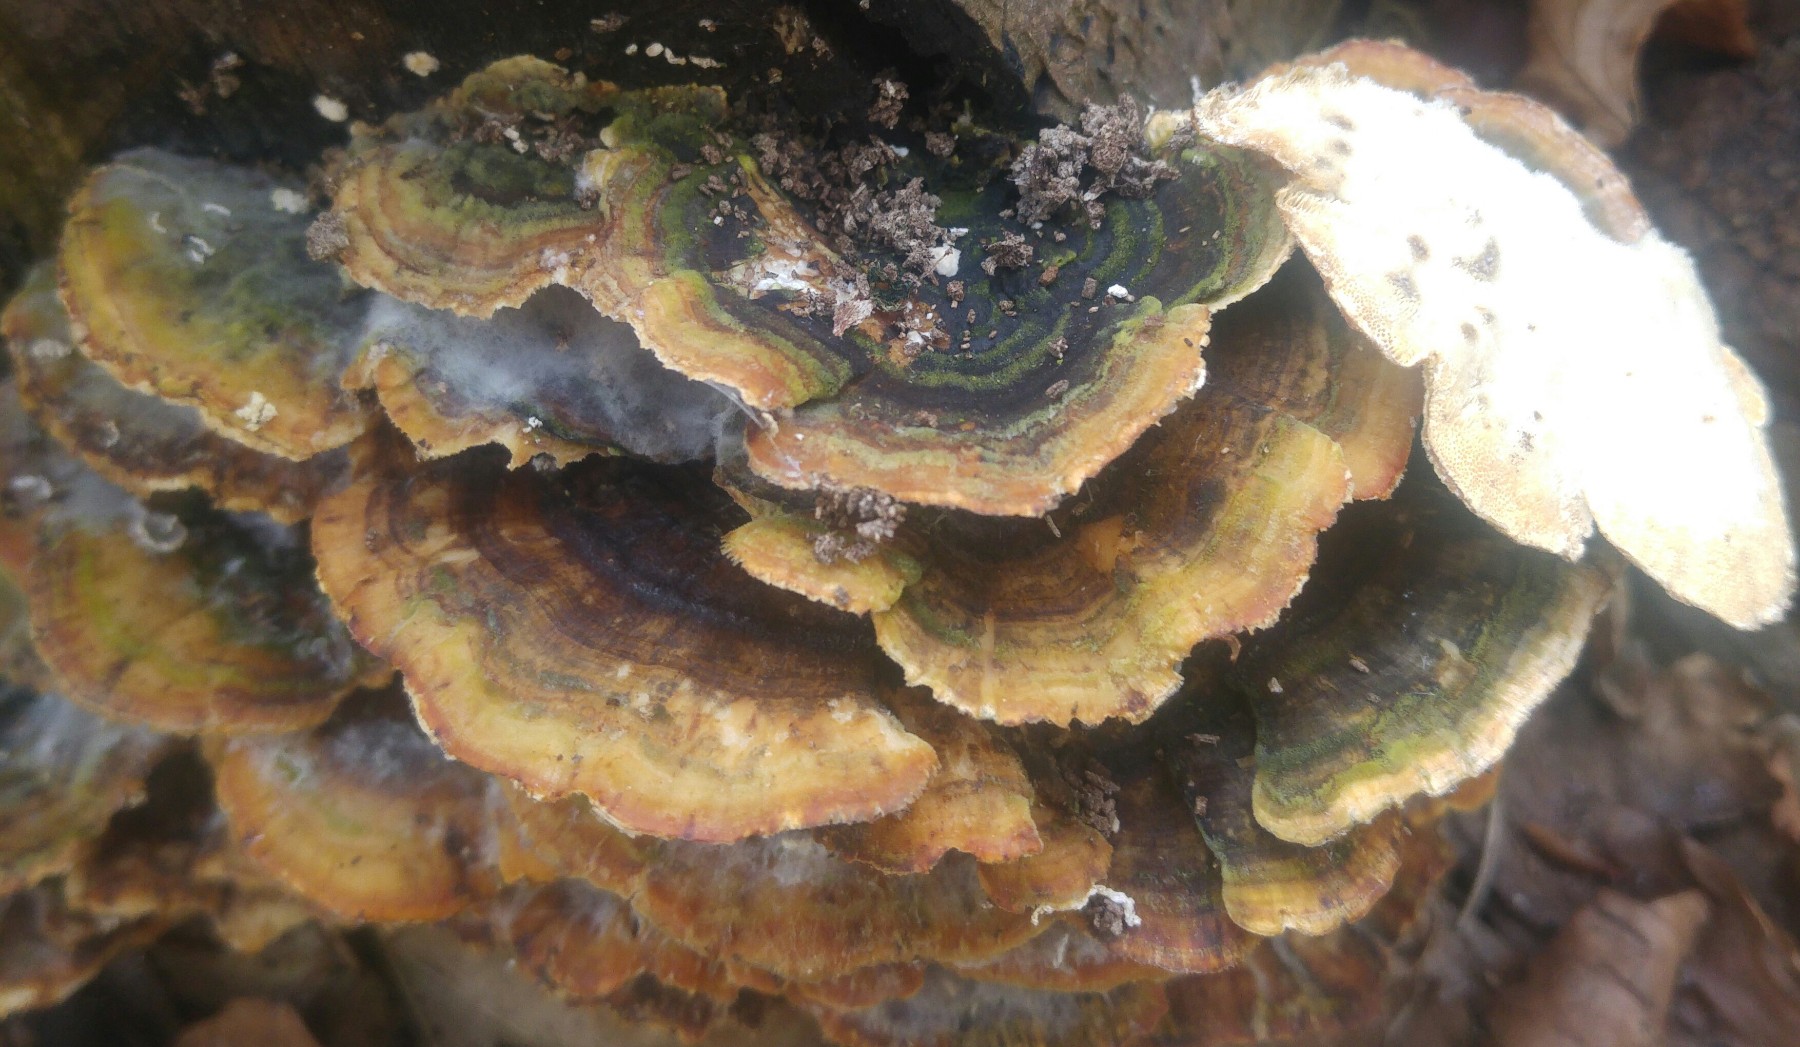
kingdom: Fungi
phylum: Basidiomycota
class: Agaricomycetes
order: Polyporales
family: Polyporaceae
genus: Trametes
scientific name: Trametes versicolor
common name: broget læderporesvamp
